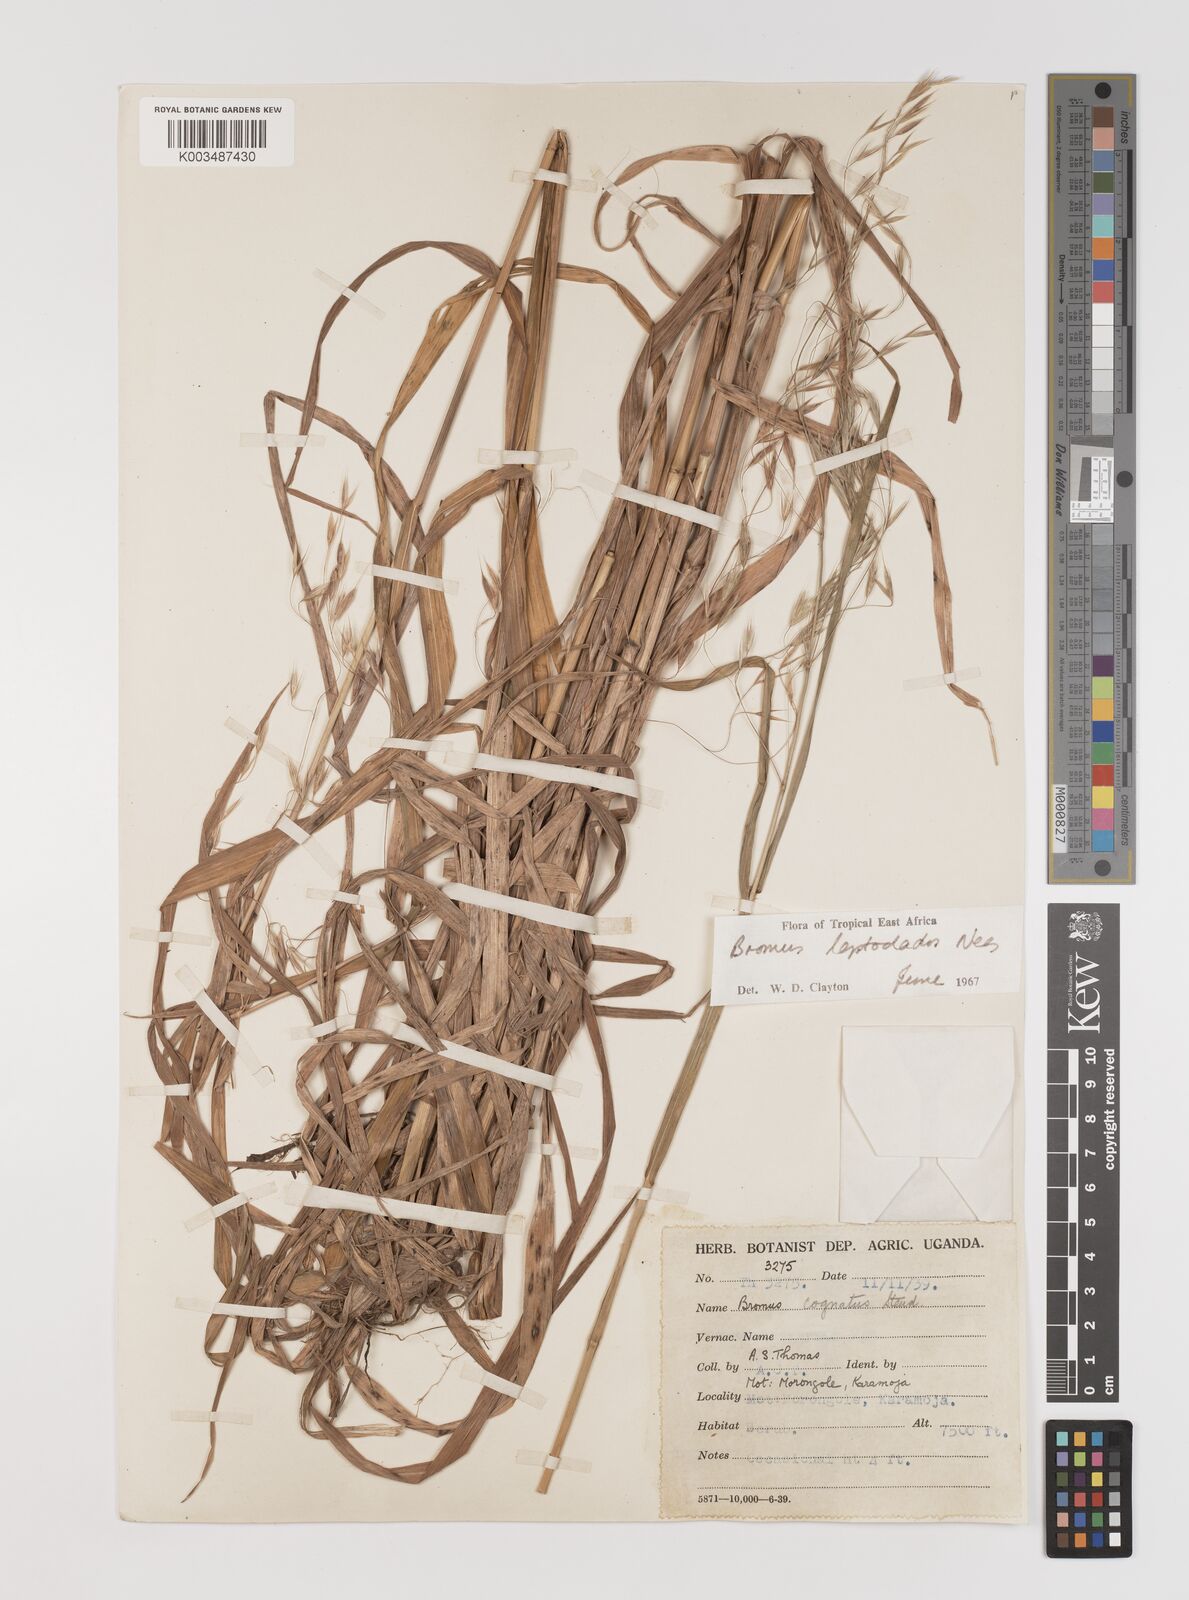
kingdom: Plantae
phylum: Tracheophyta
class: Liliopsida
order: Poales
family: Poaceae
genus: Bromus
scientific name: Bromus leptoclados
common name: Mountain bromegrass
